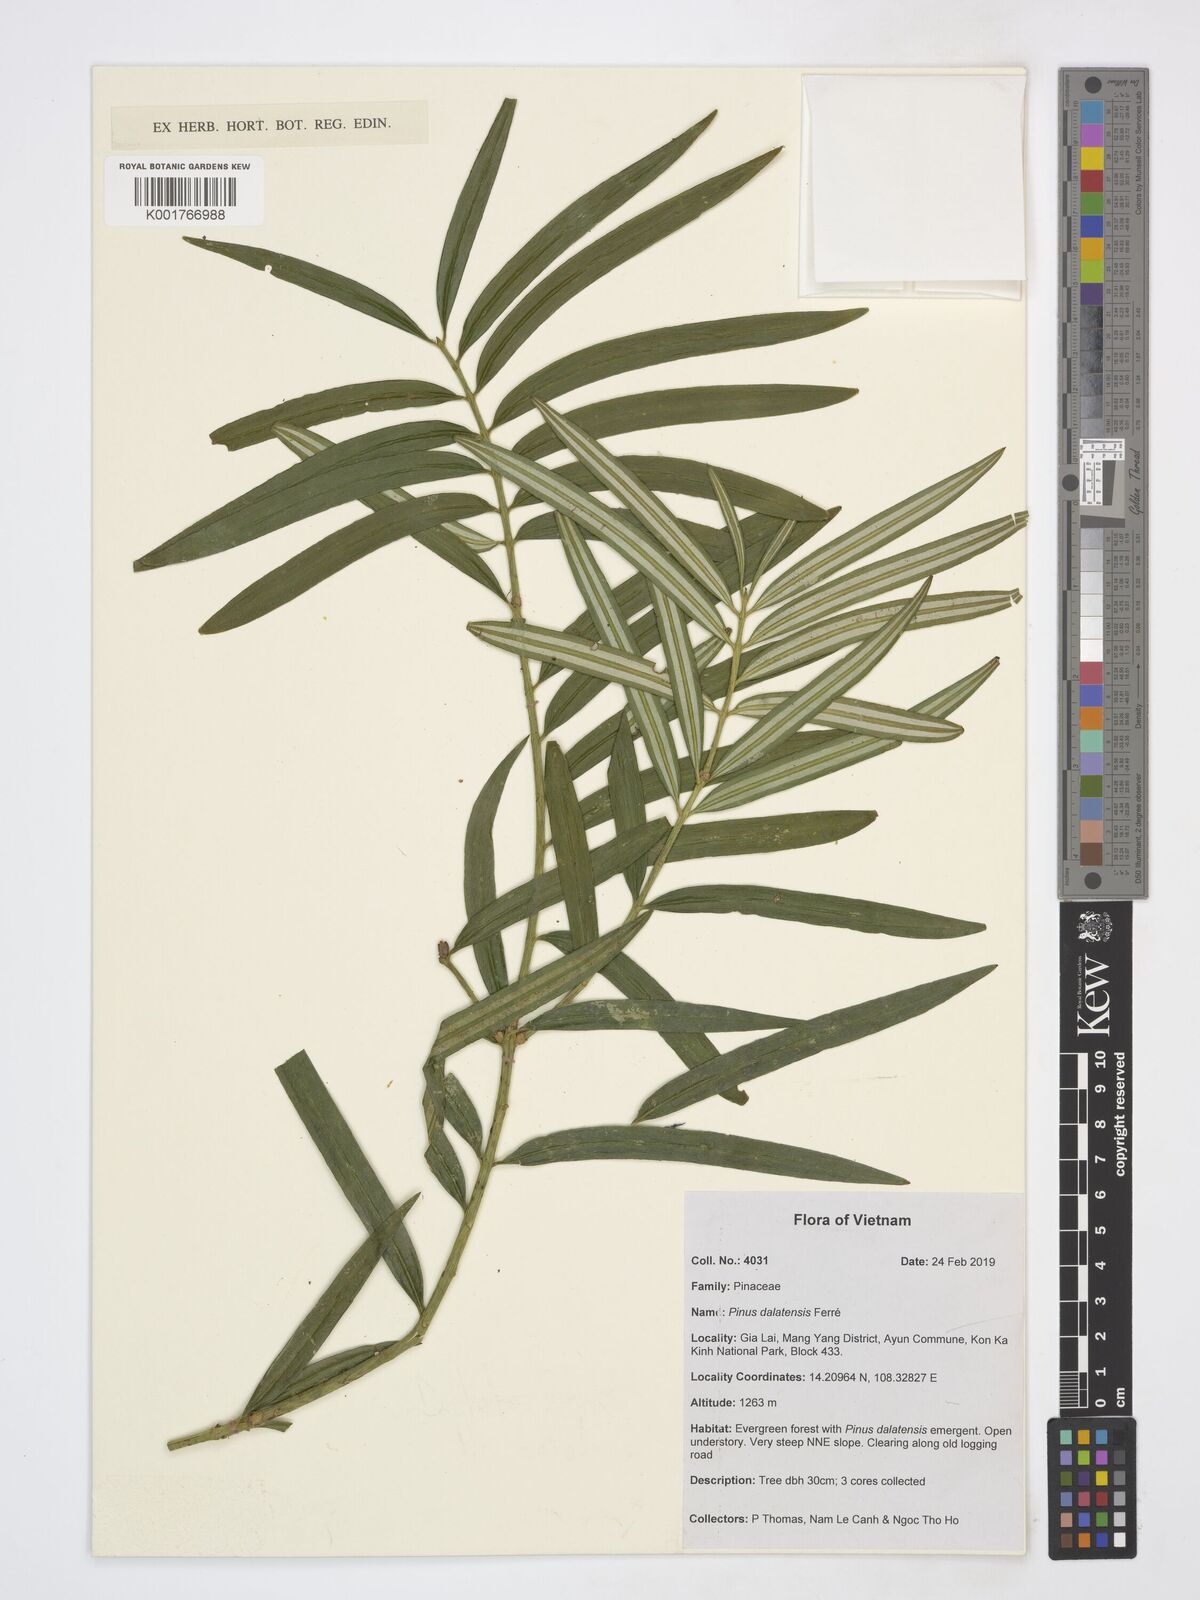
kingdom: Plantae
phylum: Tracheophyta
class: Pinopsida
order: Pinales
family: Pinaceae
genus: Pinus
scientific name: Pinus dalatensis
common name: Dalat pine
